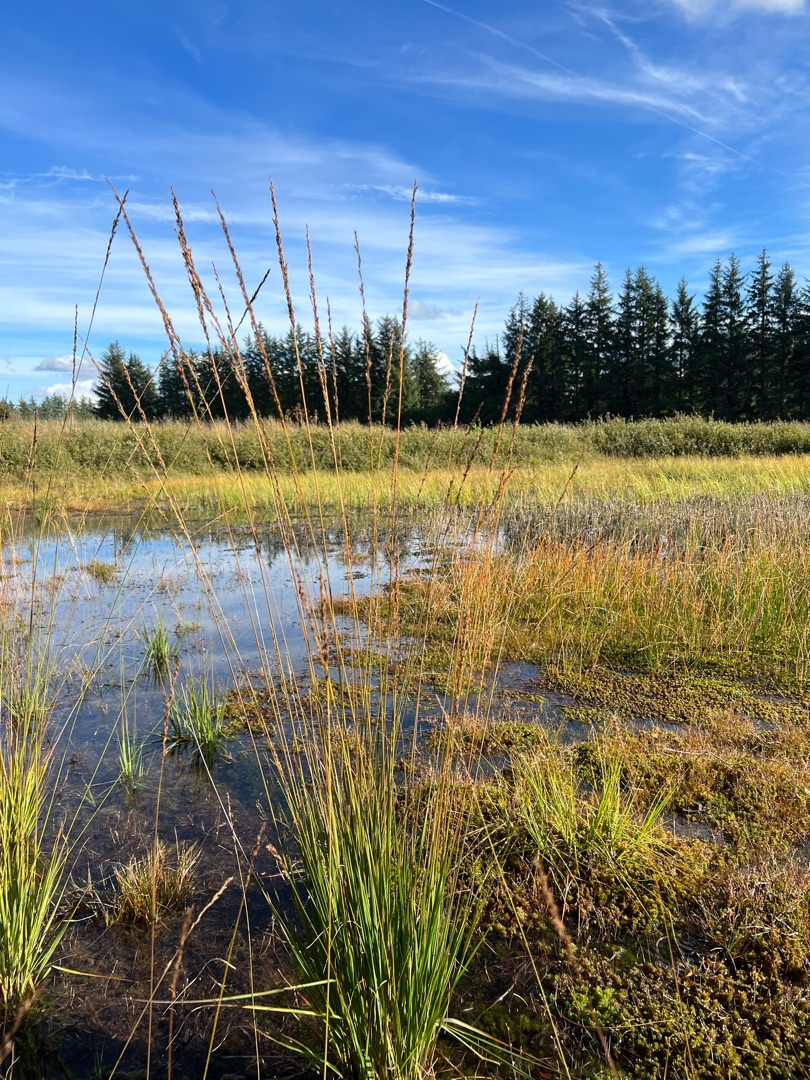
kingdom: Plantae
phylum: Tracheophyta
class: Liliopsida
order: Poales
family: Poaceae
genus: Molinia
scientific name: Molinia caerulea
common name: Blåtop
